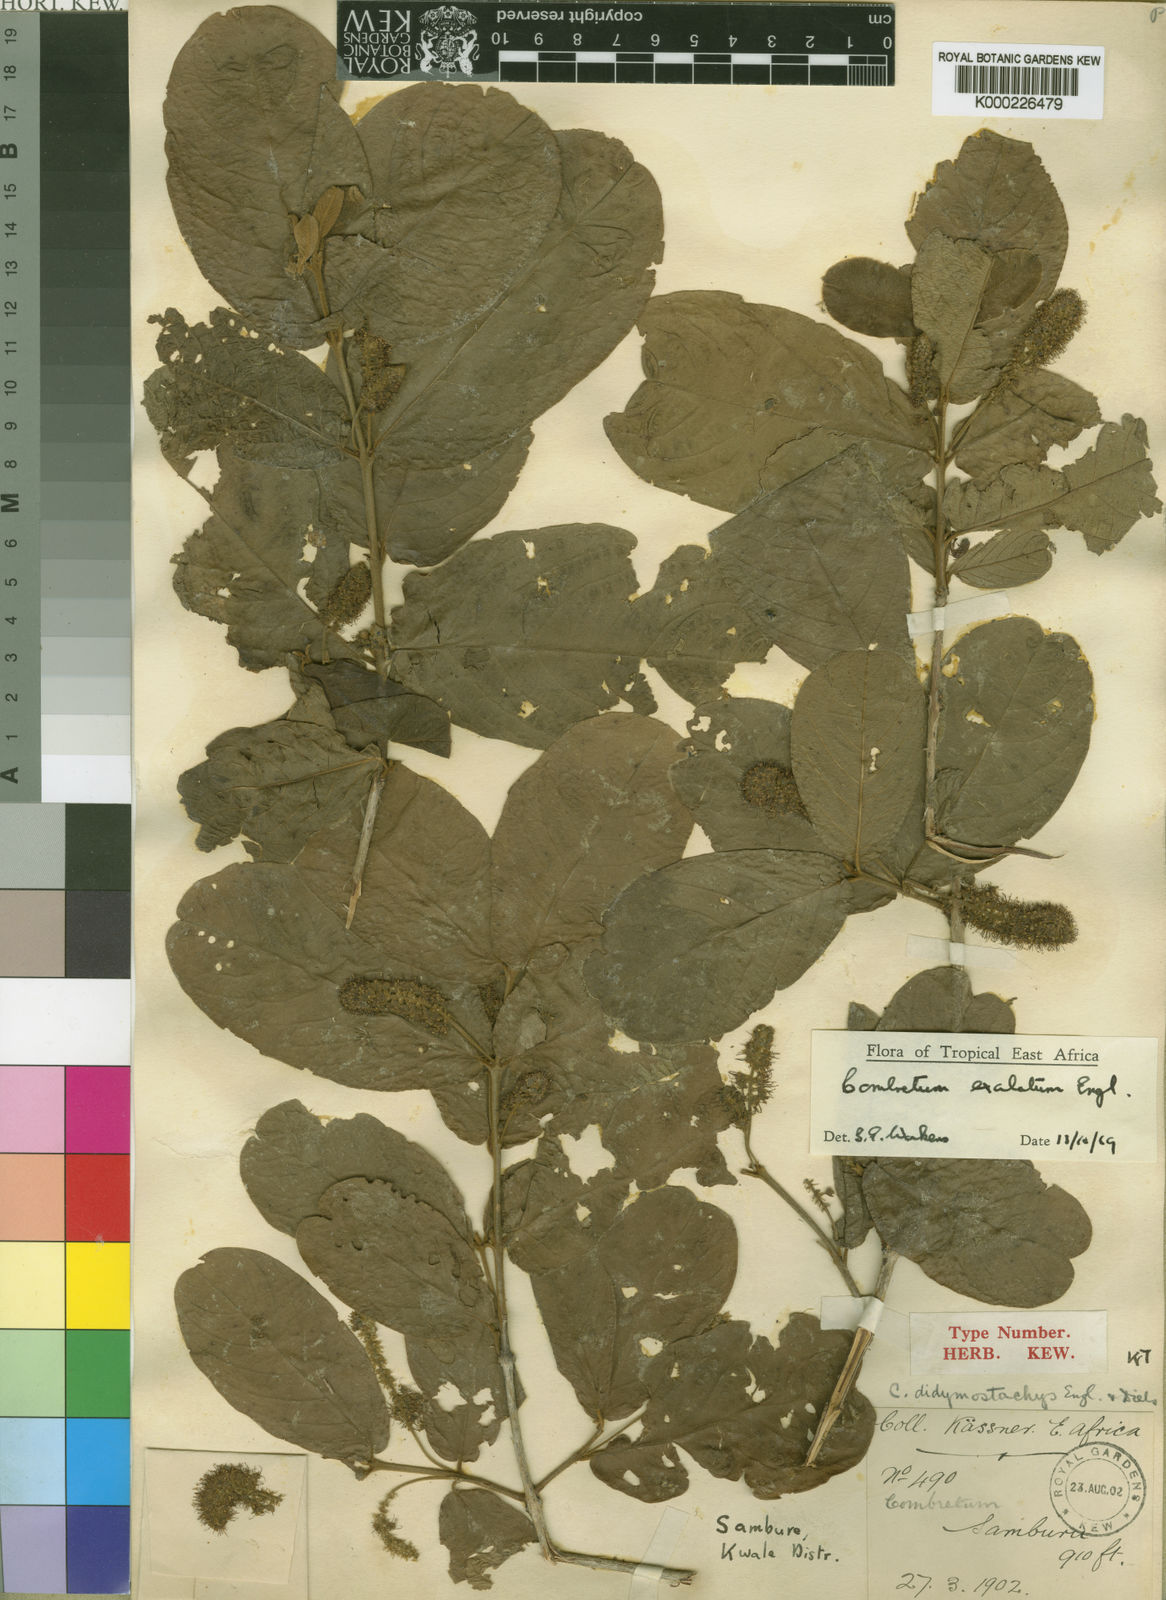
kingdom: Plantae
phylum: Tracheophyta
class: Magnoliopsida
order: Myrtales
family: Combretaceae
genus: Combretum
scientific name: Combretum exalatum
